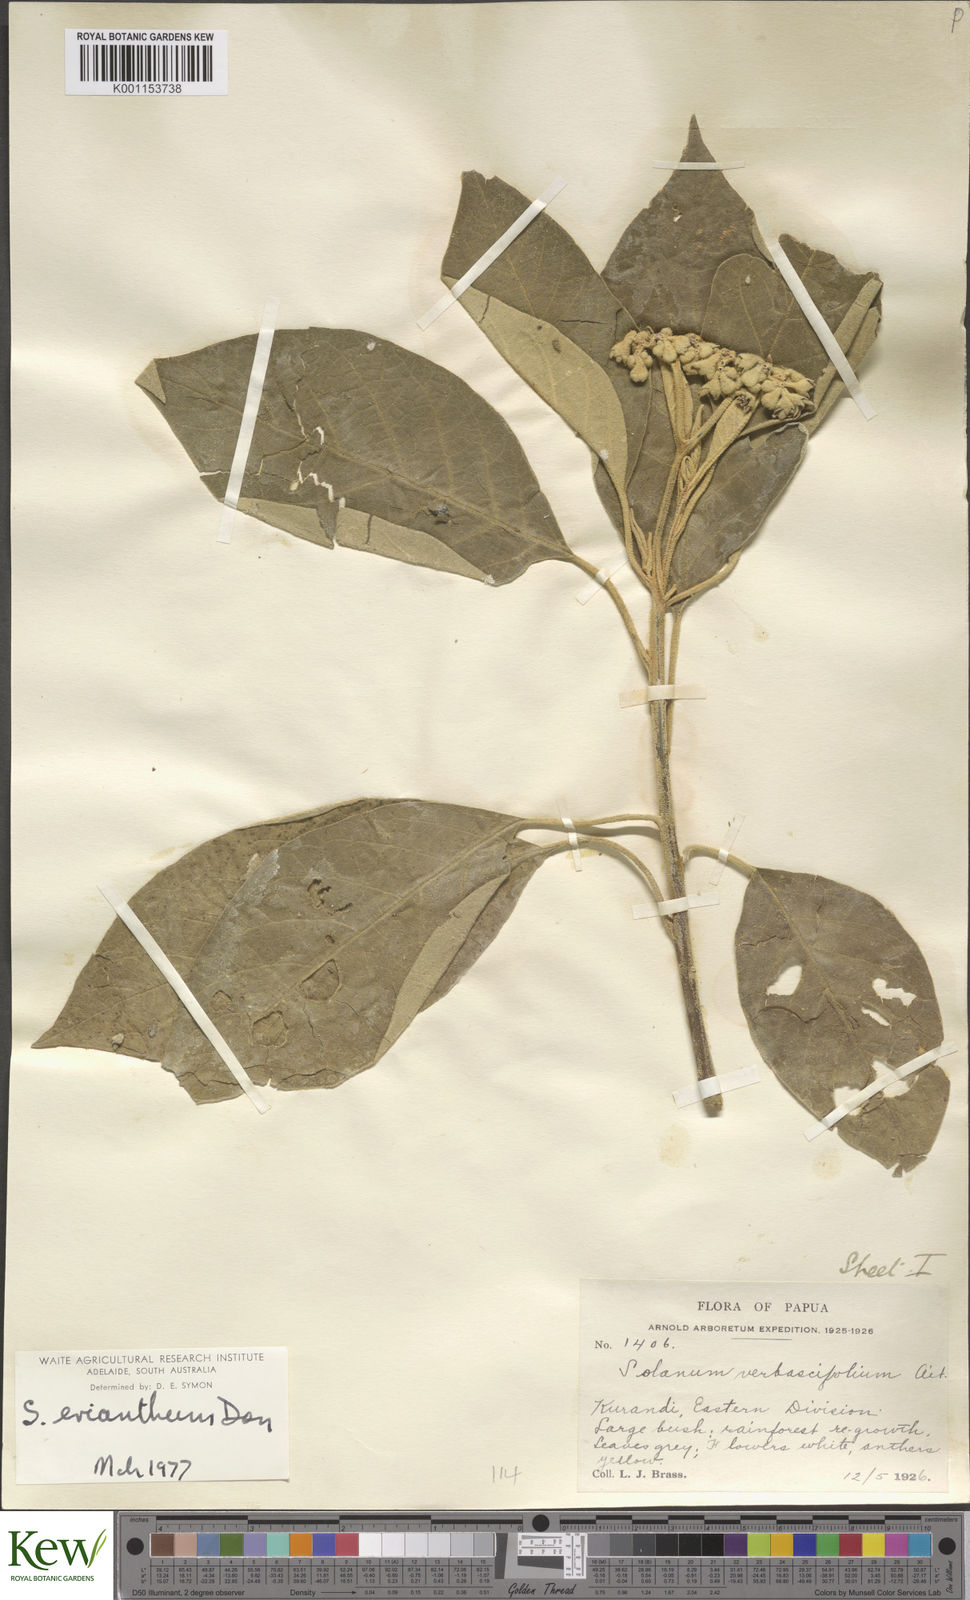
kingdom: Plantae
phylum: Tracheophyta
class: Magnoliopsida
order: Solanales
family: Solanaceae
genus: Solanum
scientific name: Solanum erianthum
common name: Tobacco-tree
